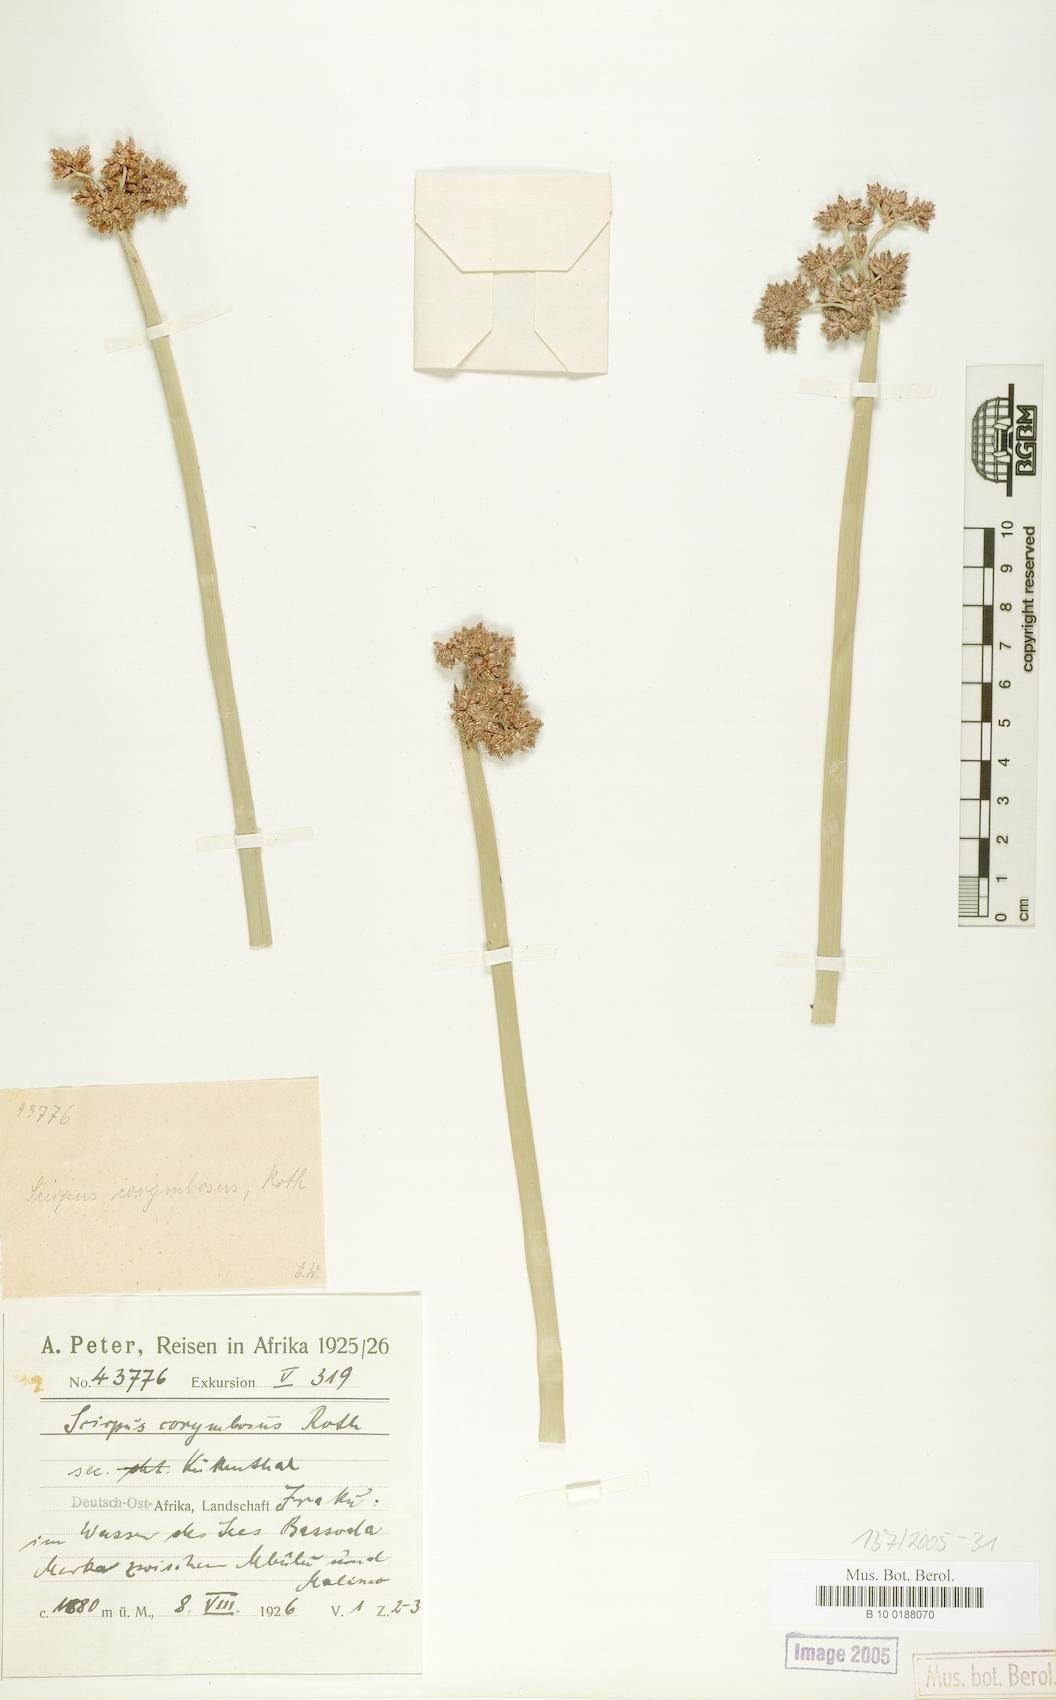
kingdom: Plantae
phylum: Tracheophyta
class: Liliopsida
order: Poales
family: Cyperaceae
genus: Schoenoplectiella
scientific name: Schoenoplectiella brachyceras
